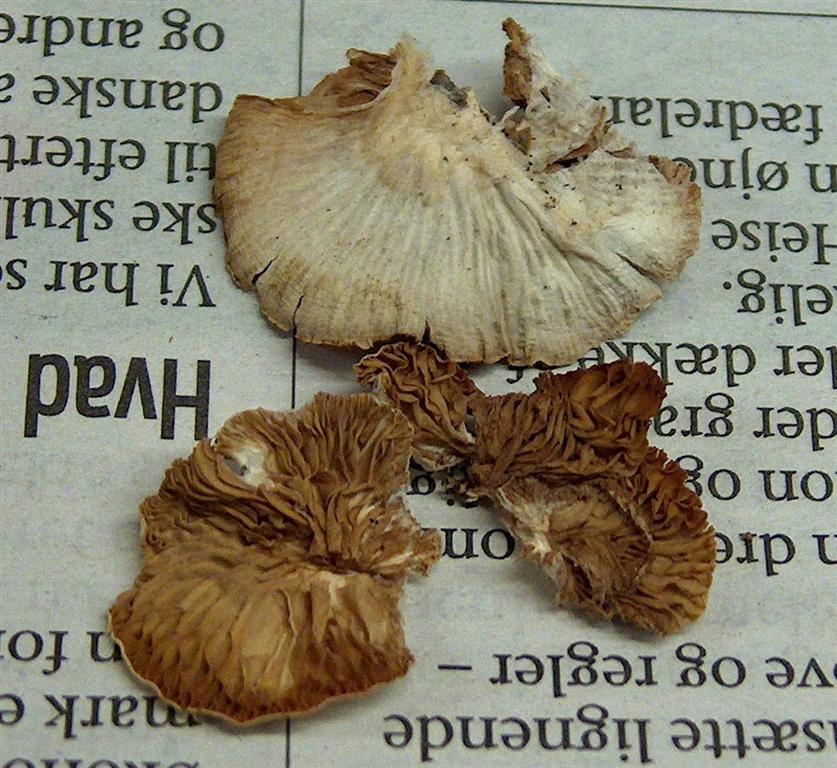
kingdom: Fungi
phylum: Basidiomycota
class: Agaricomycetes
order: Agaricales
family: Crepidotaceae
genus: Crepidotus
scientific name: Crepidotus cesatii
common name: almindelig muslingesvamp
